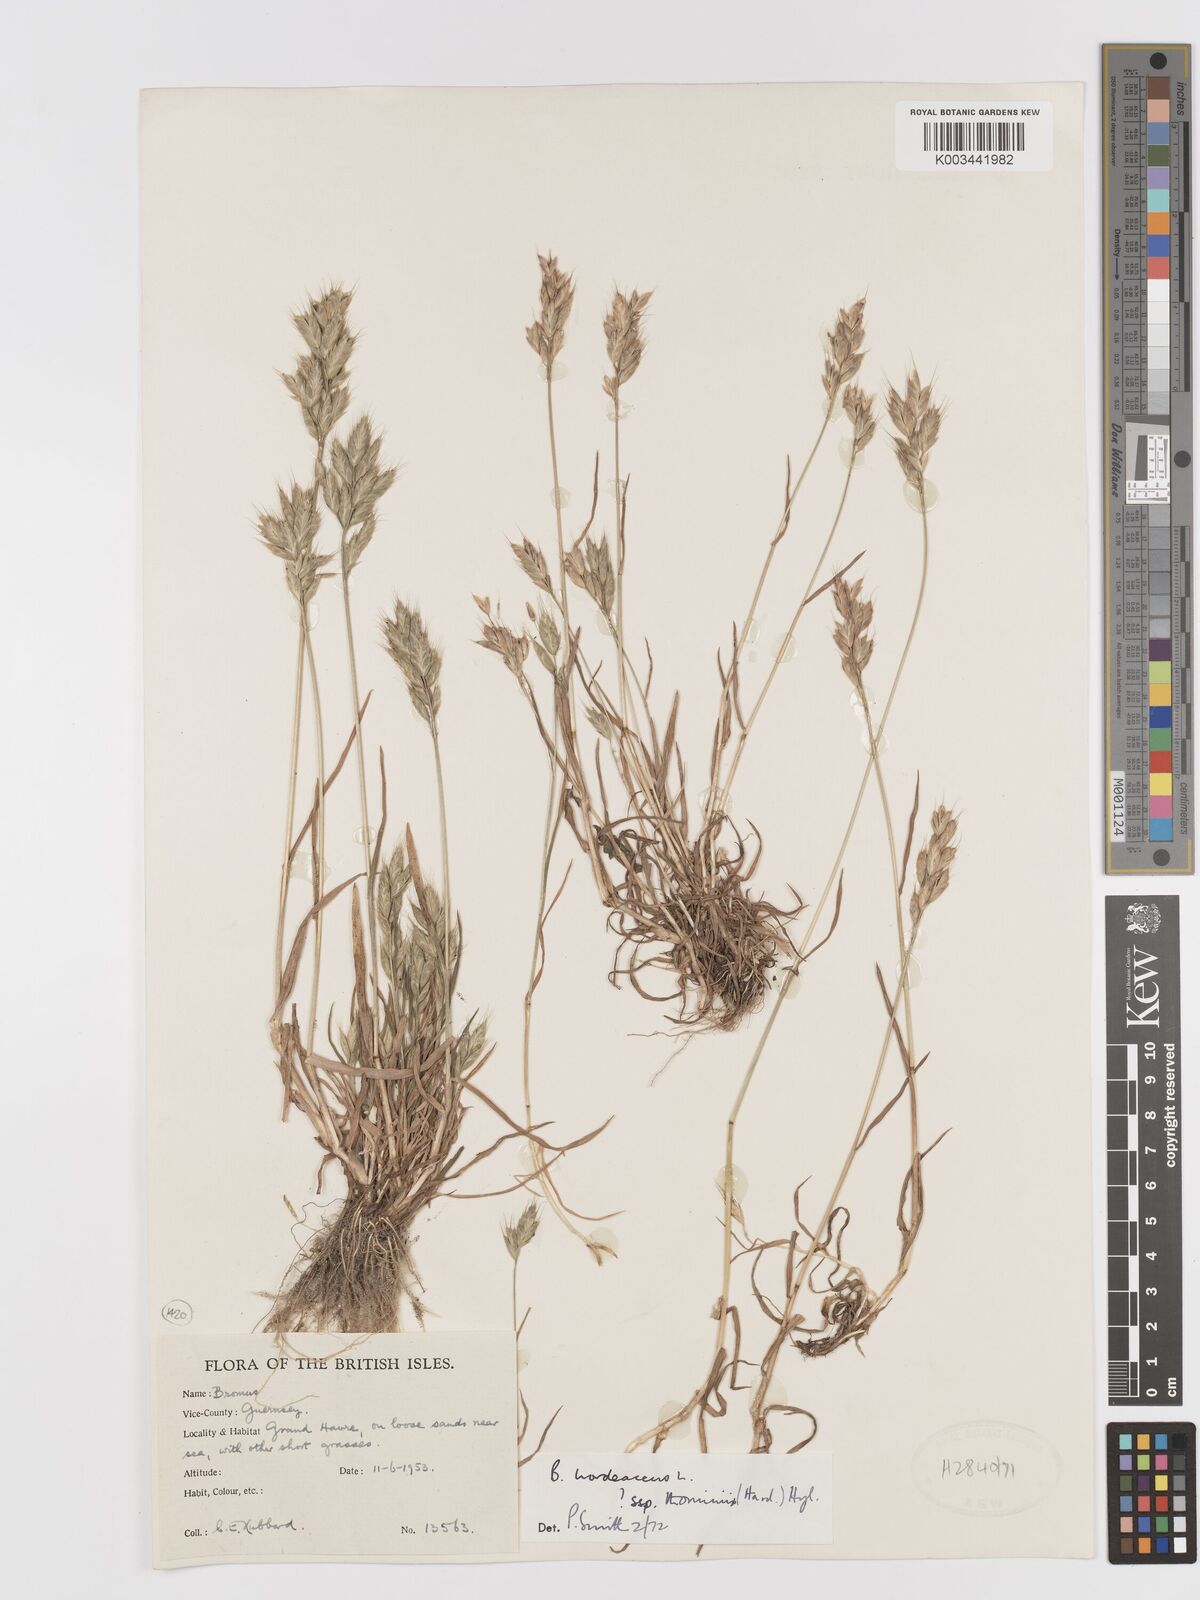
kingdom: Plantae
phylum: Tracheophyta
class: Liliopsida
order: Poales
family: Poaceae
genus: Bromus
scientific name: Bromus hordeaceus
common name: Soft brome
